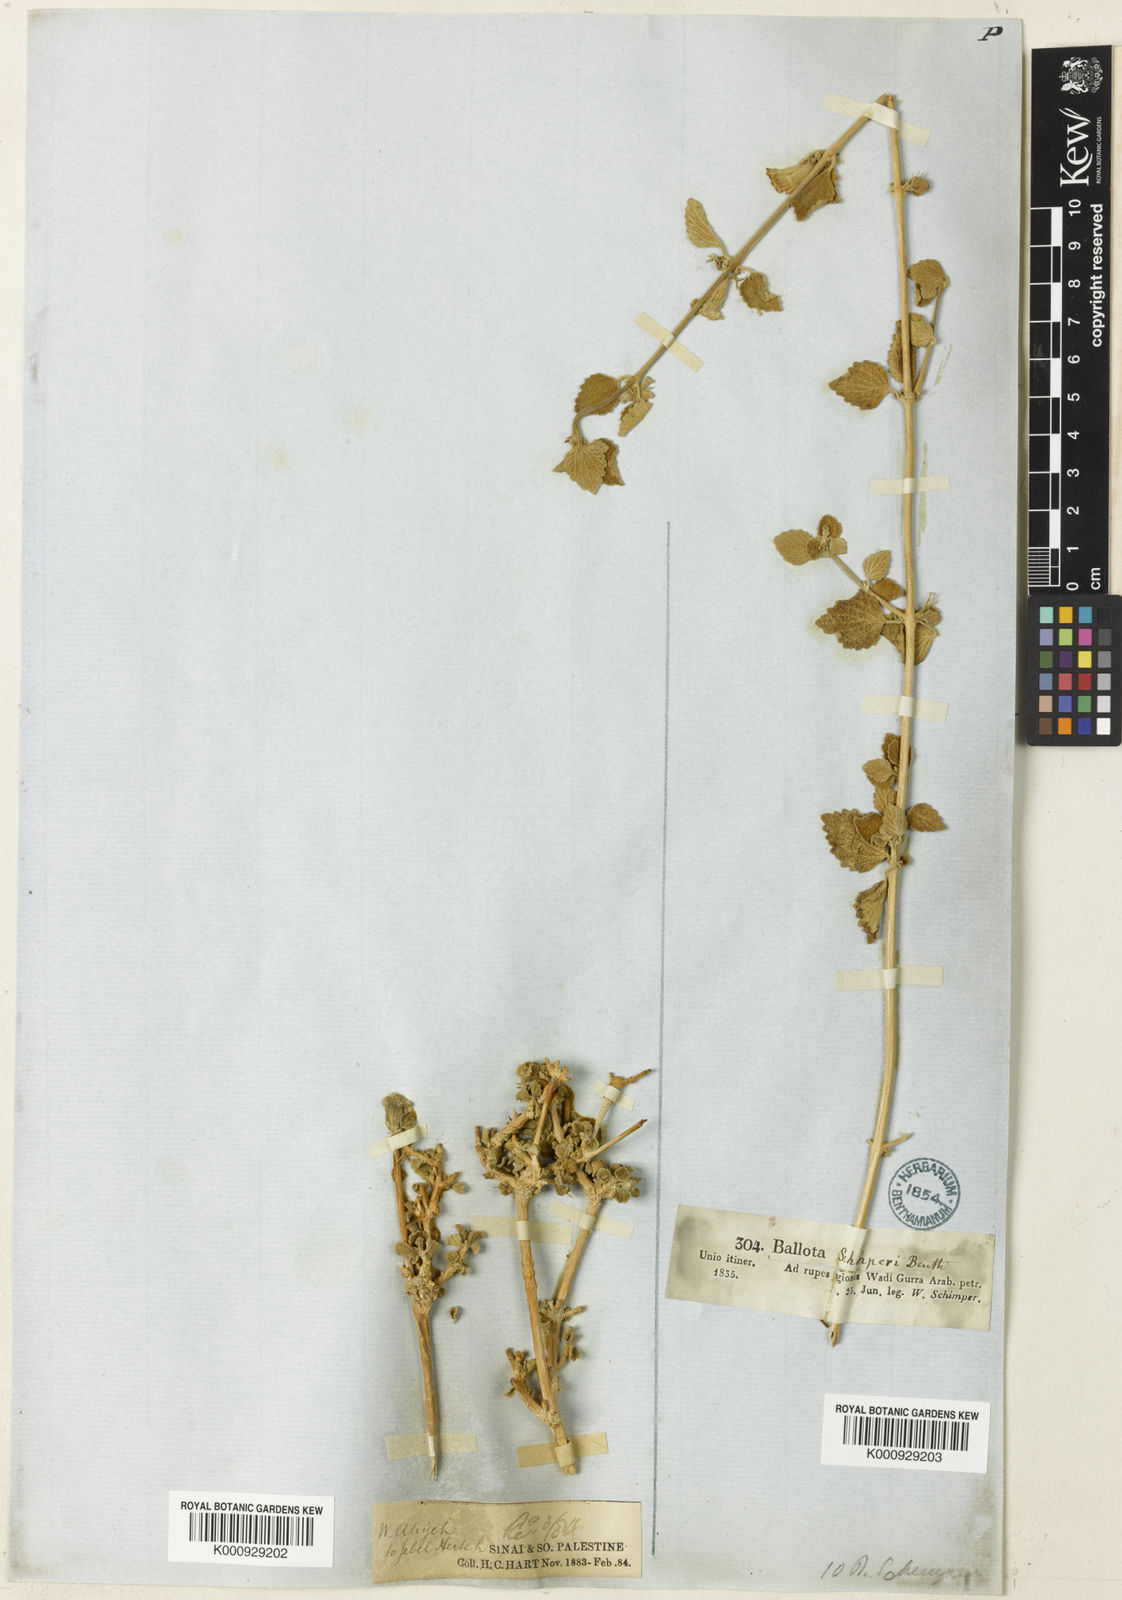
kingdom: Plantae
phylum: Tracheophyta
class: Magnoliopsida
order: Lamiales
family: Lamiaceae
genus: Otostegia
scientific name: Otostegia fruticosa
